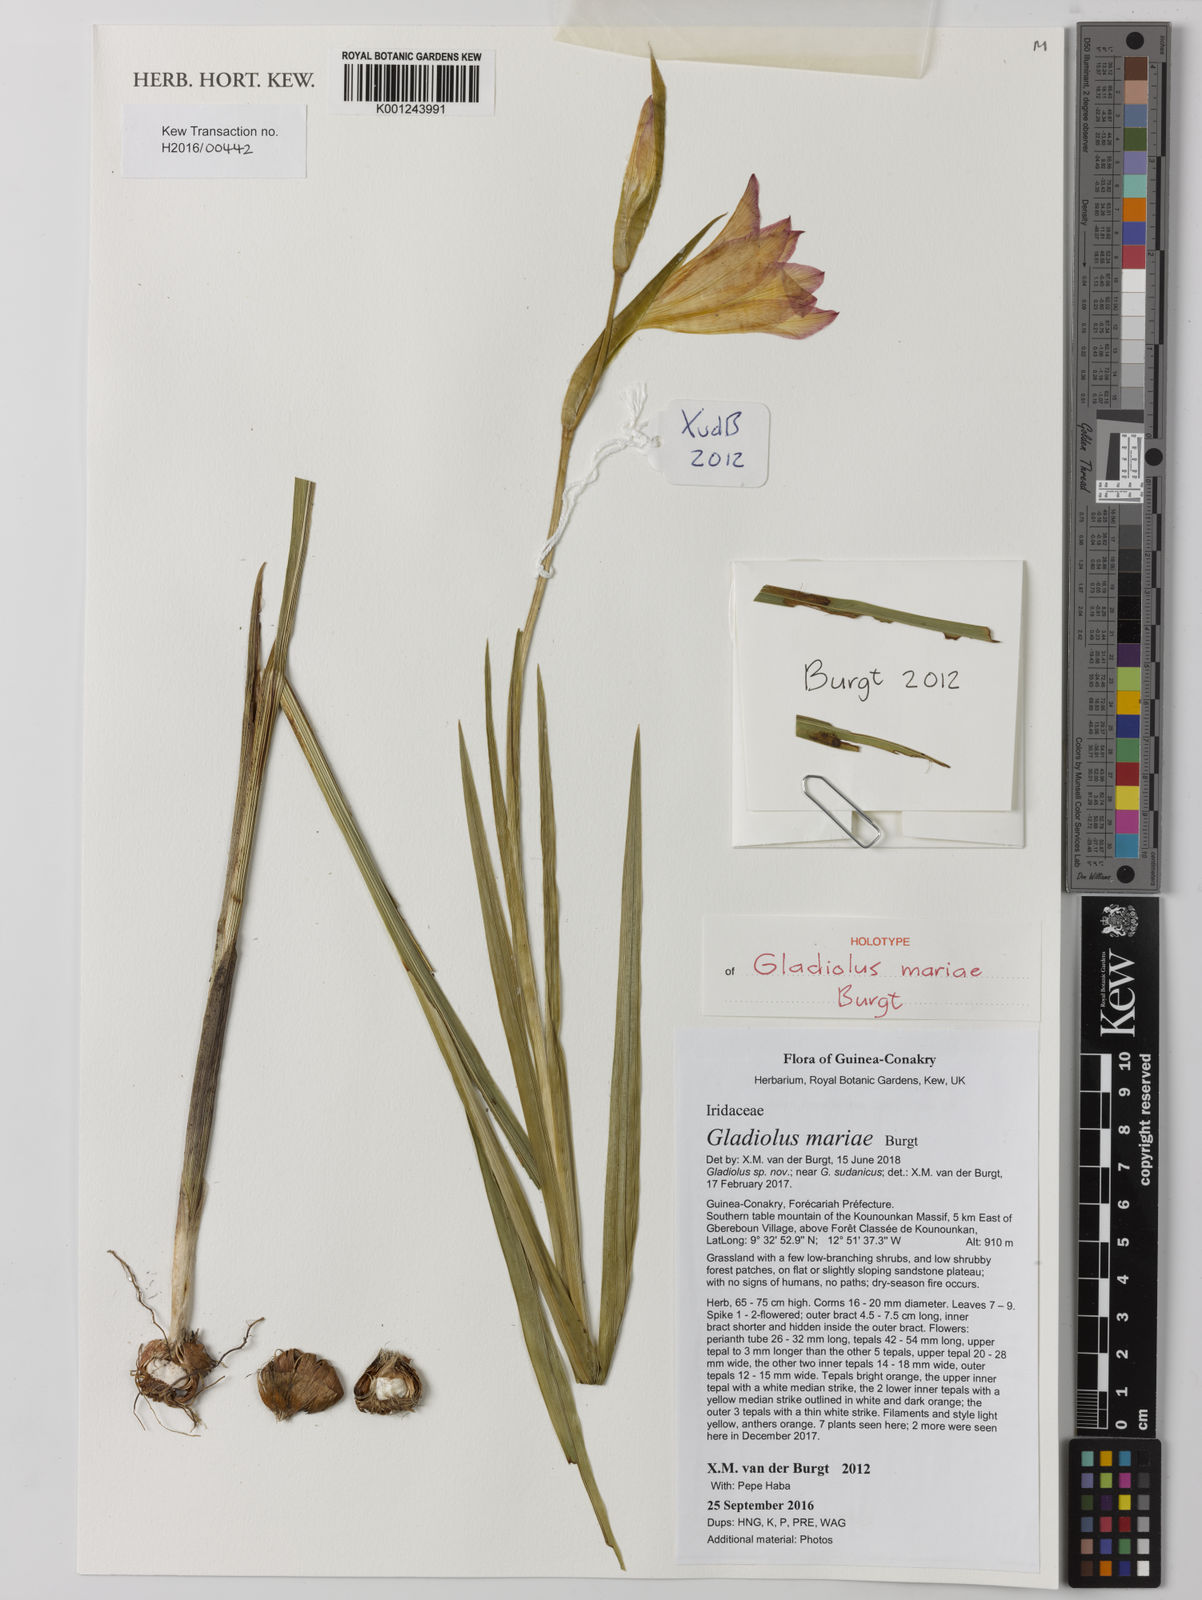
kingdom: Plantae
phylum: Tracheophyta
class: Liliopsida
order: Asparagales
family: Iridaceae
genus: Gladiolus
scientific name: Gladiolus mariae
